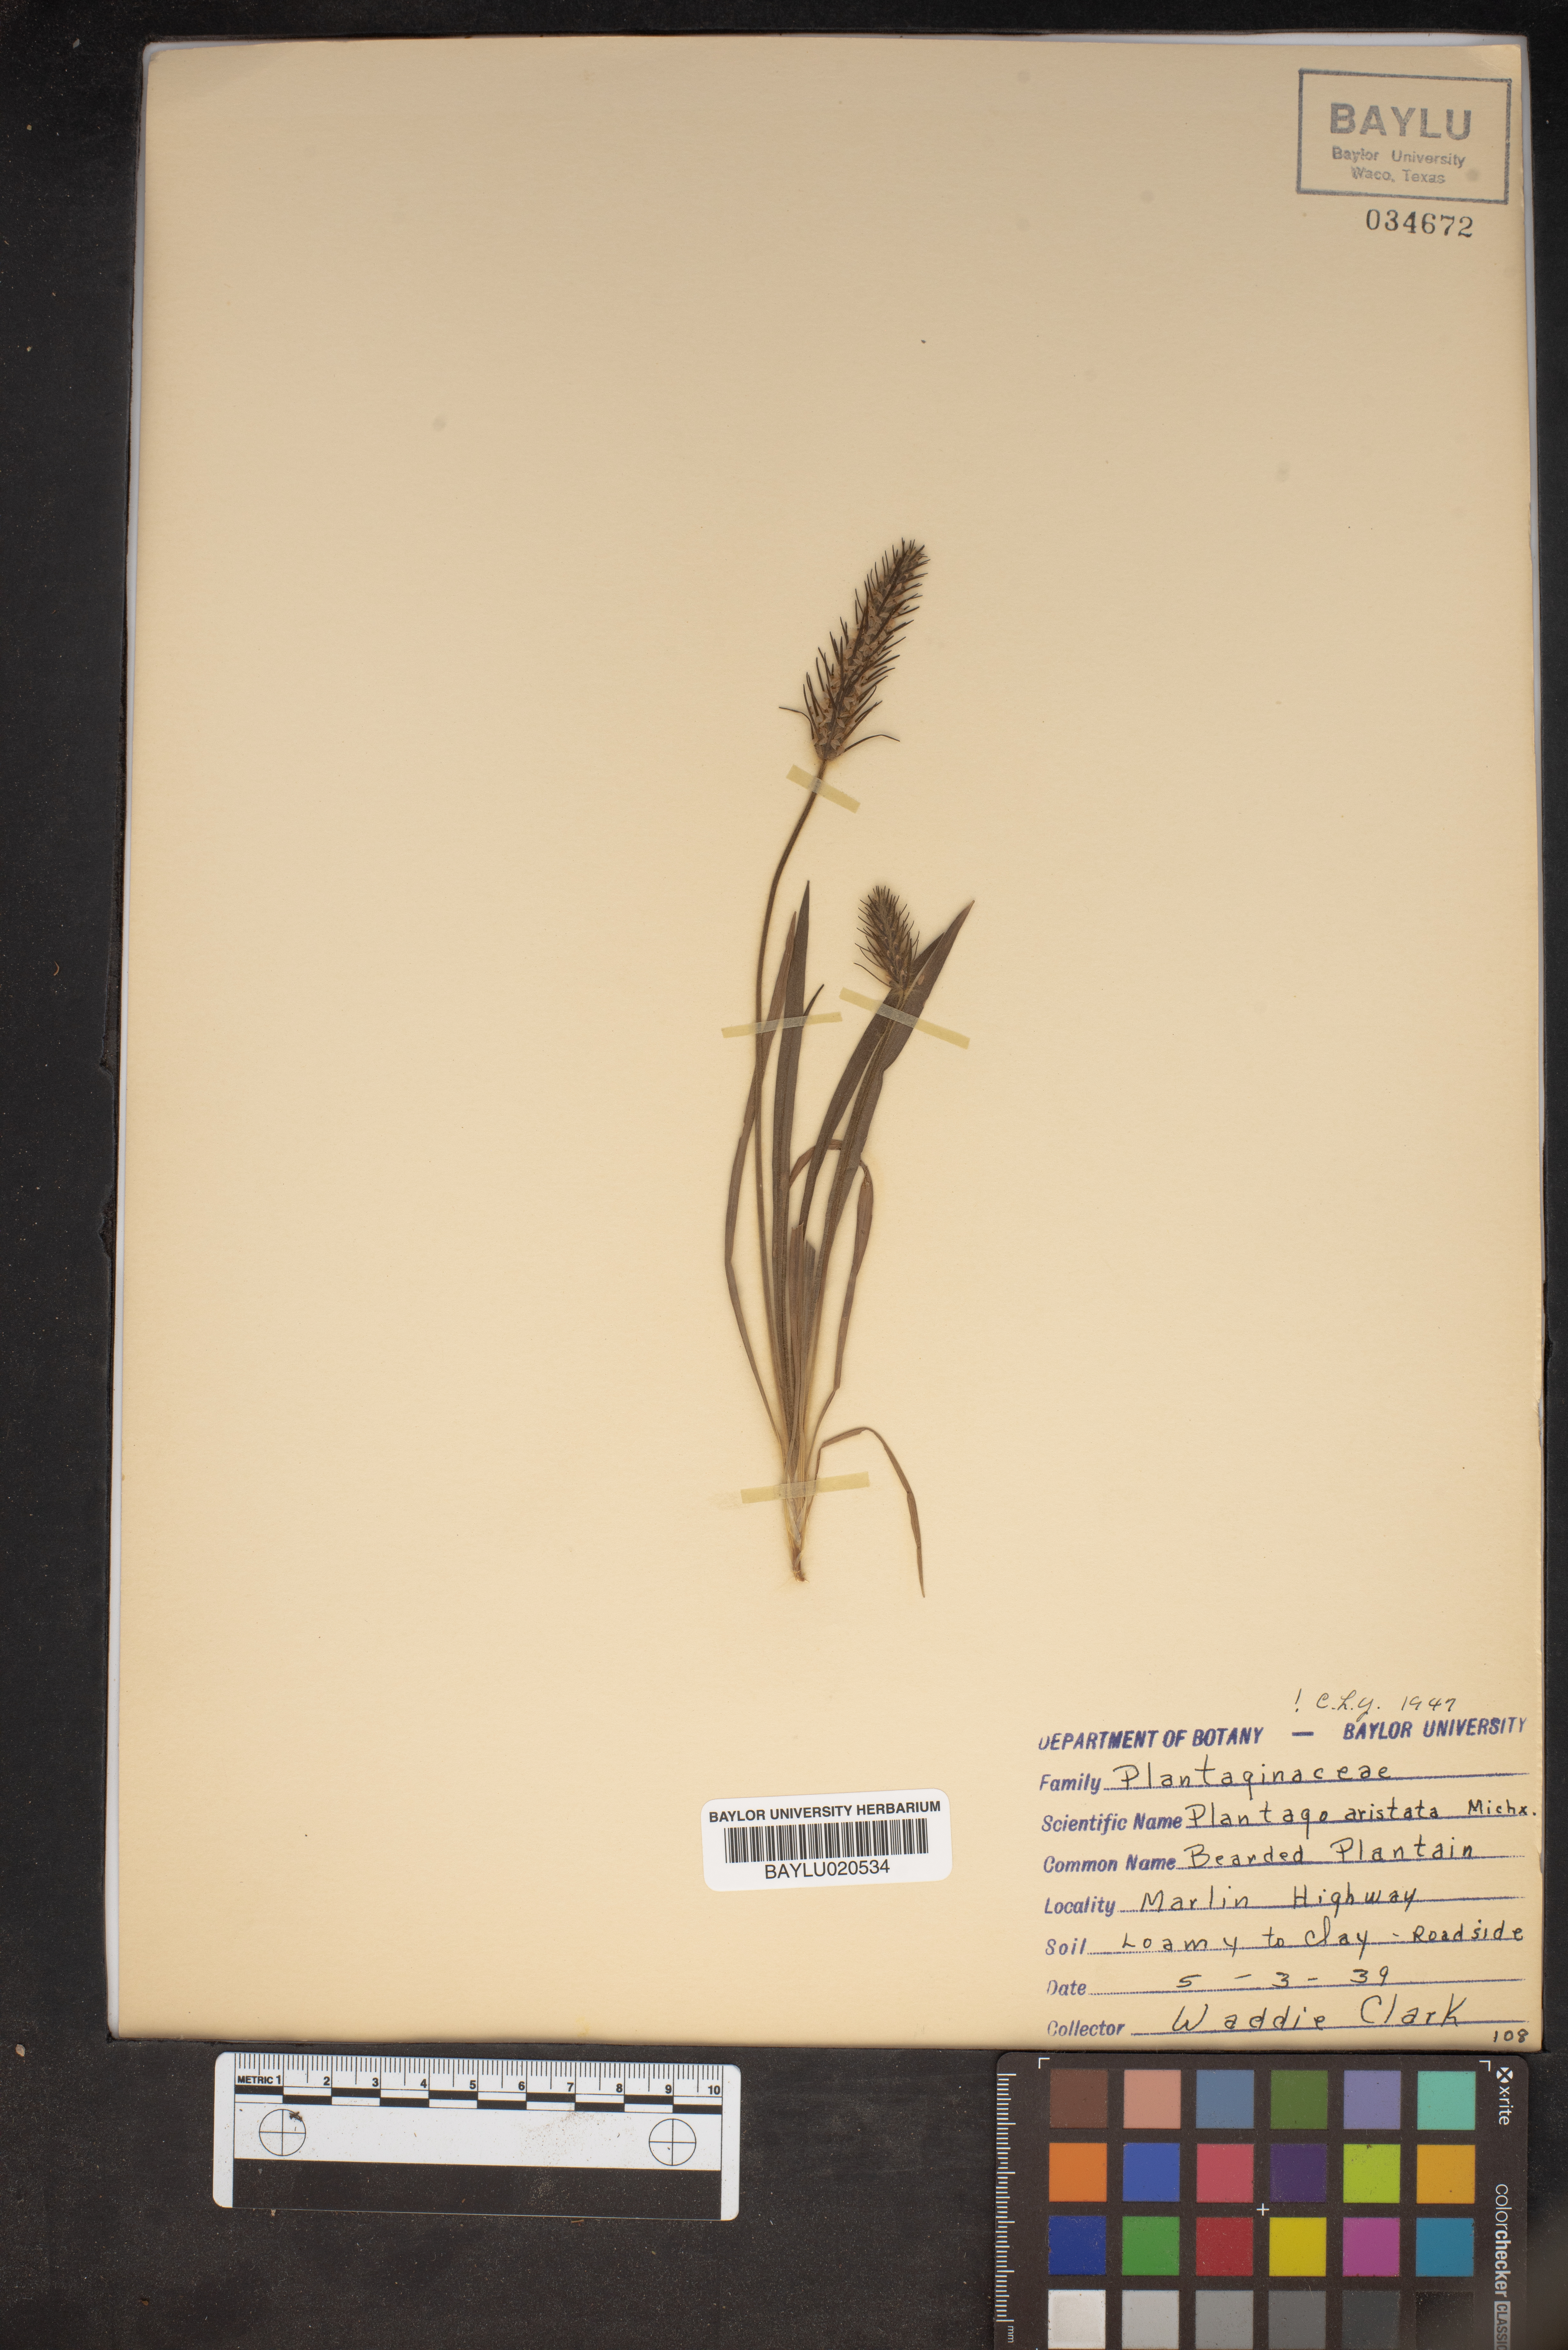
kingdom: Plantae
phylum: Tracheophyta
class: Magnoliopsida
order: Lamiales
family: Plantaginaceae
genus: Plantago
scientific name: Plantago aristata
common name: Bracted plantain
